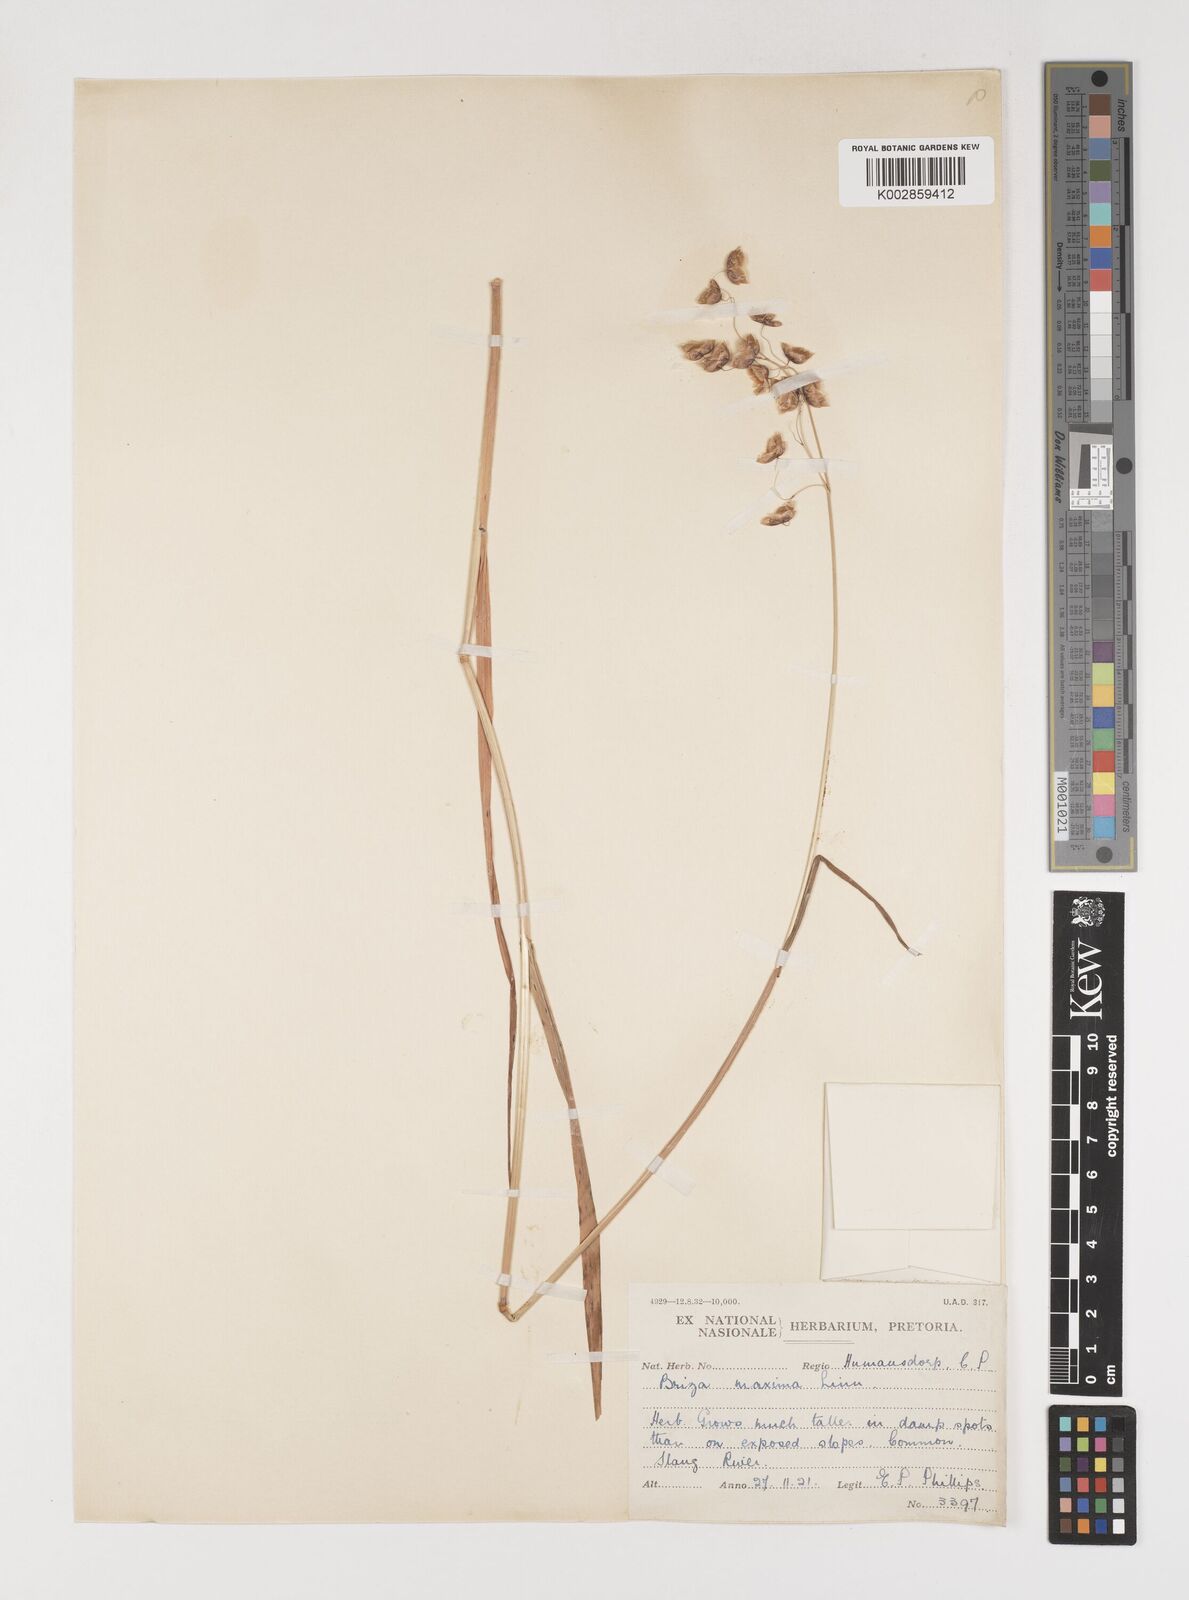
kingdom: Plantae
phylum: Tracheophyta
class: Liliopsida
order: Poales
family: Poaceae
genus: Briza
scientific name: Briza maxima
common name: Big quakinggrass
